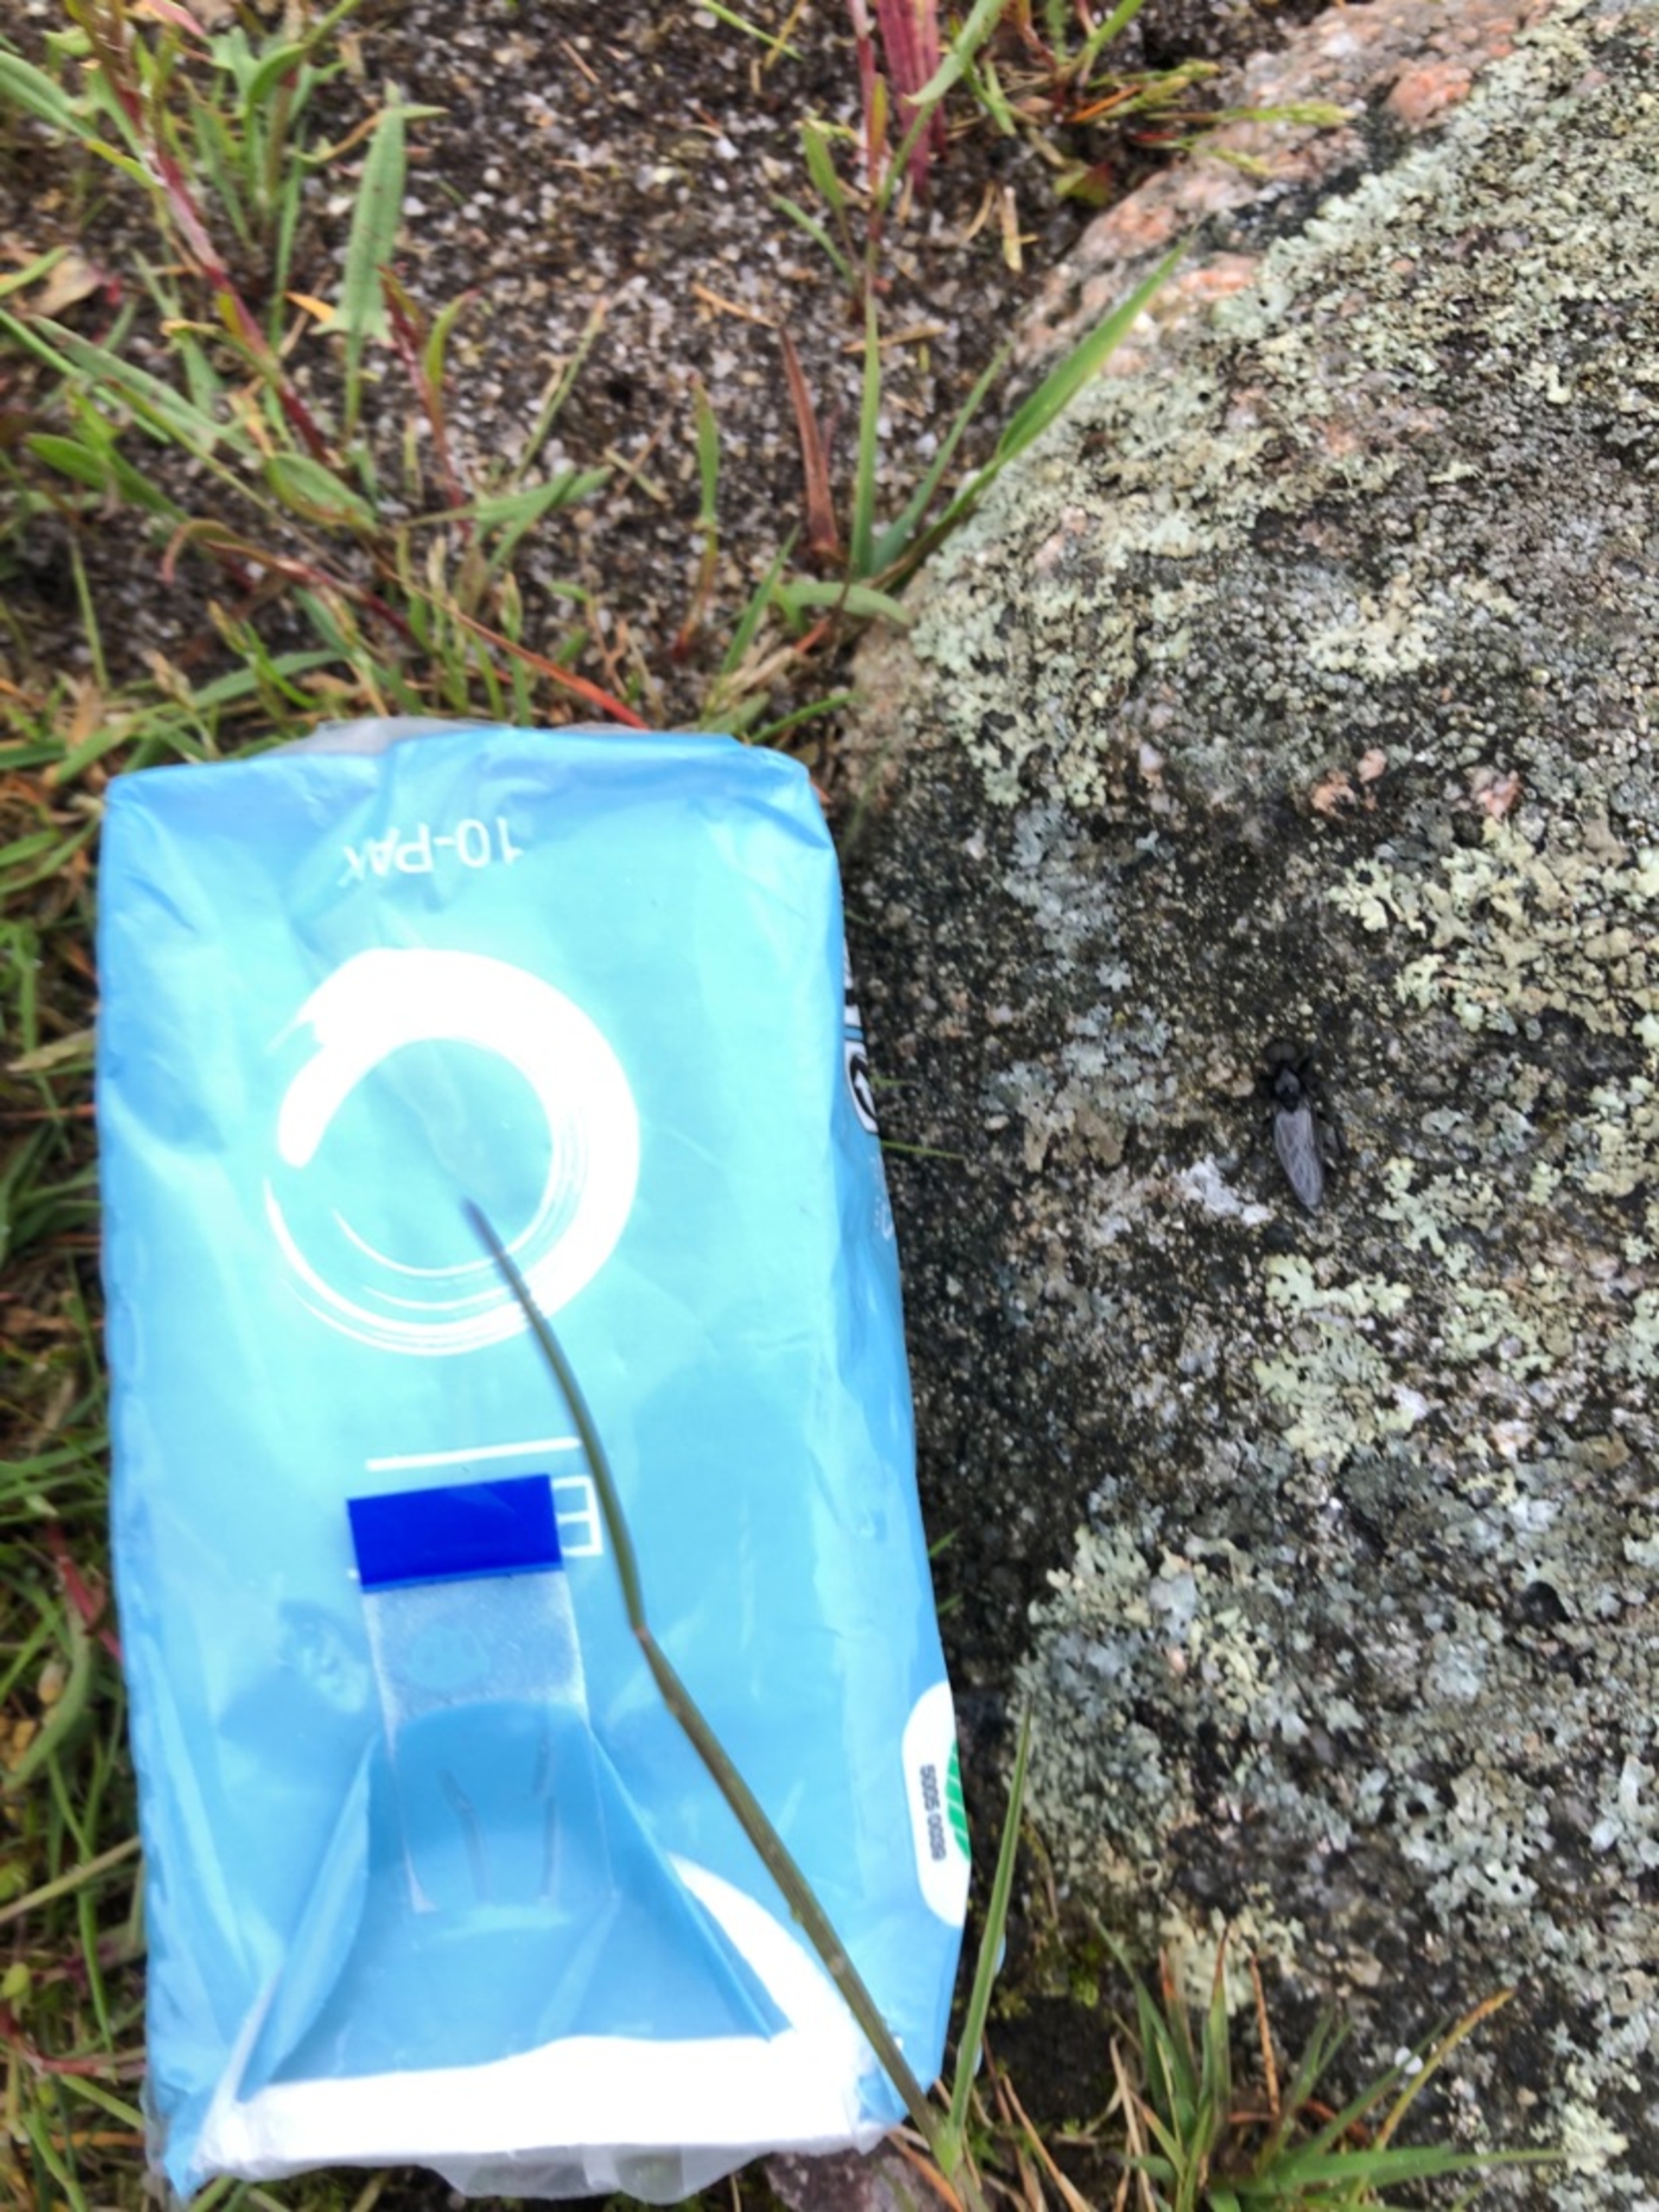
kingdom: Animalia
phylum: Arthropoda
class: Insecta
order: Diptera
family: Bibionidae
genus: Bibio
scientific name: Bibio marci
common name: Skovhårmyg
